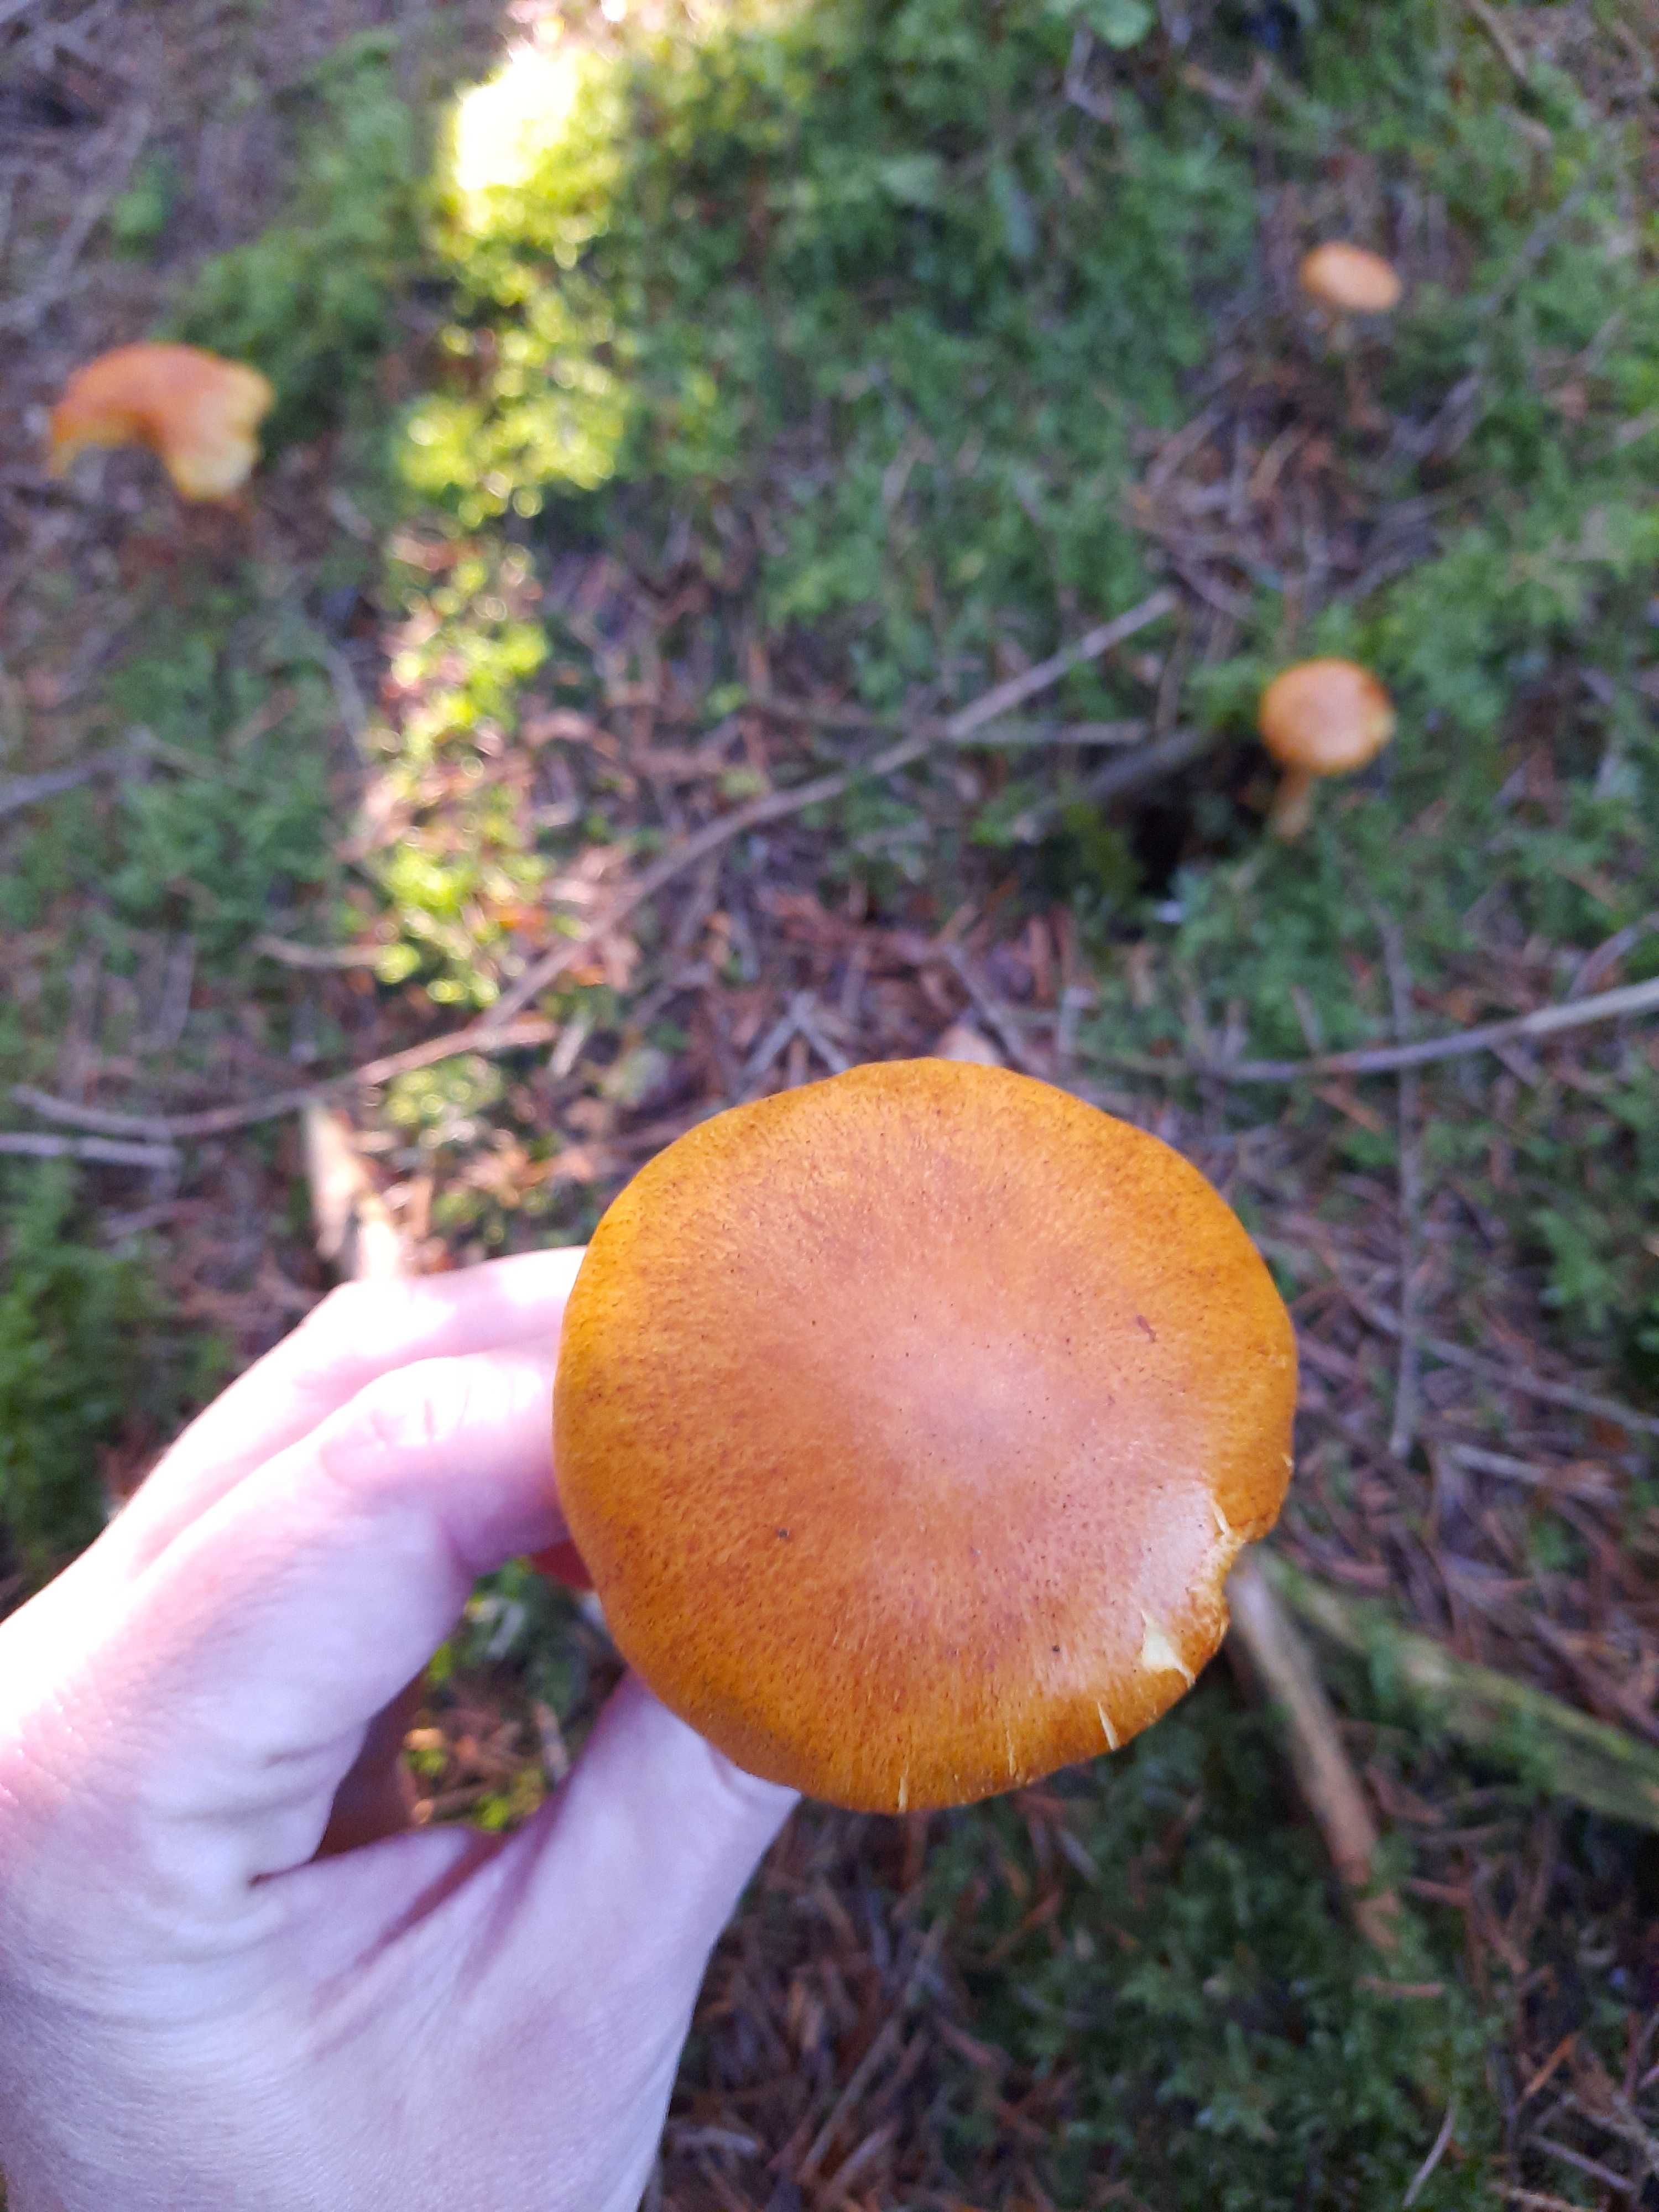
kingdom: Fungi
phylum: Basidiomycota
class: Agaricomycetes
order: Agaricales
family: Hymenogastraceae
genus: Gymnopilus
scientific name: Gymnopilus penetrans
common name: plettet flammehat
